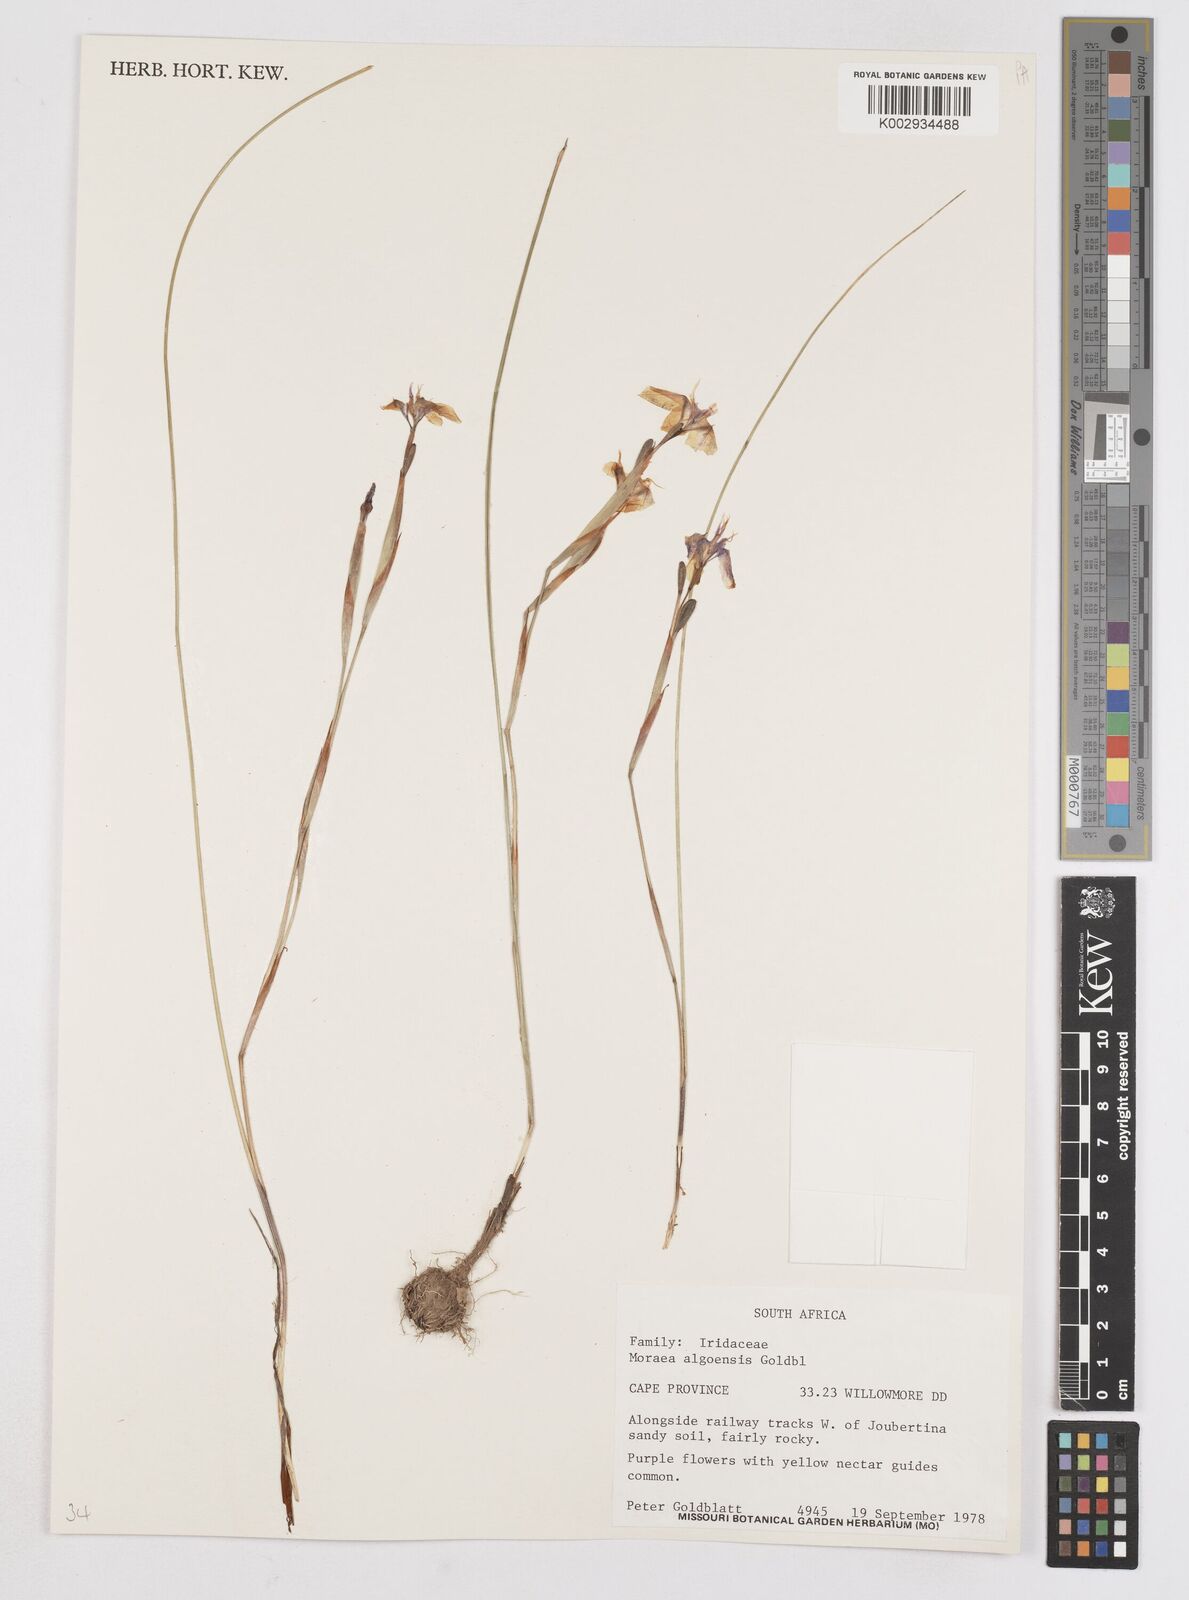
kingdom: Plantae
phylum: Tracheophyta
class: Liliopsida
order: Asparagales
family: Iridaceae
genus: Moraea
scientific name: Moraea algoensis
